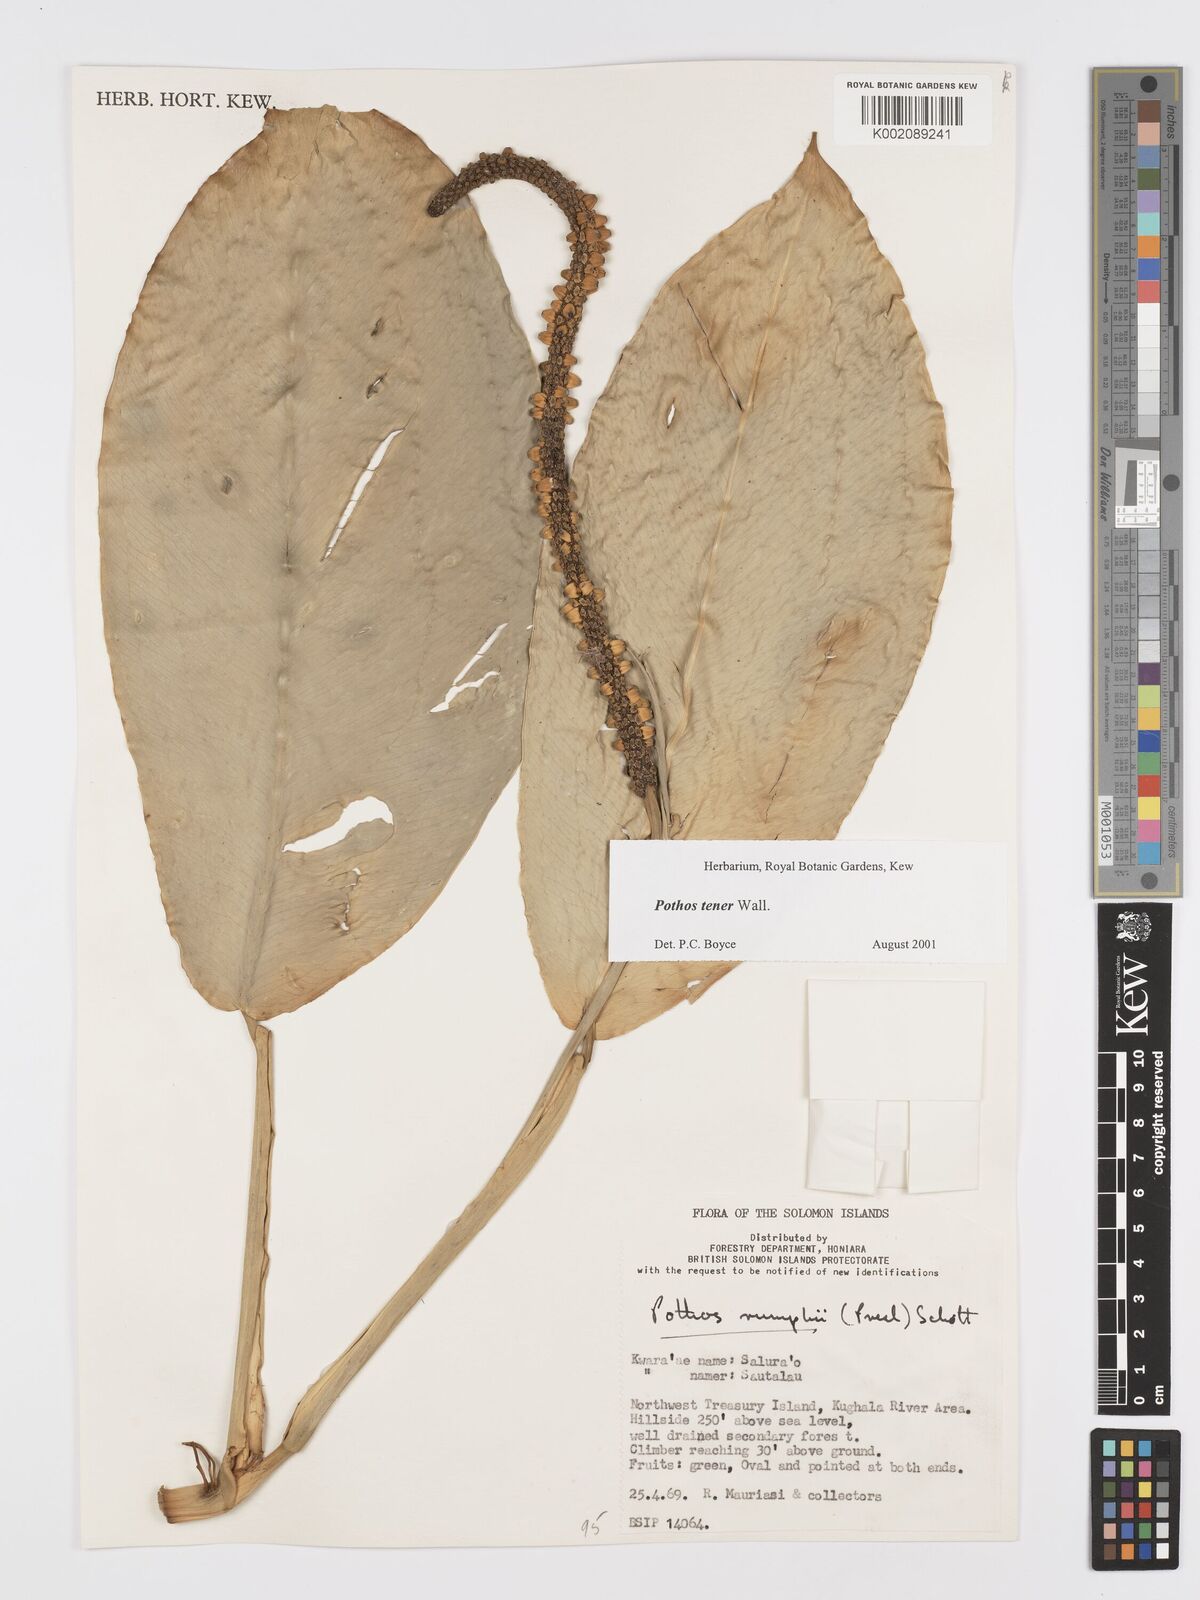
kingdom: Plantae
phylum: Tracheophyta
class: Liliopsida
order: Alismatales
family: Araceae
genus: Pothos
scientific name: Pothos tener
